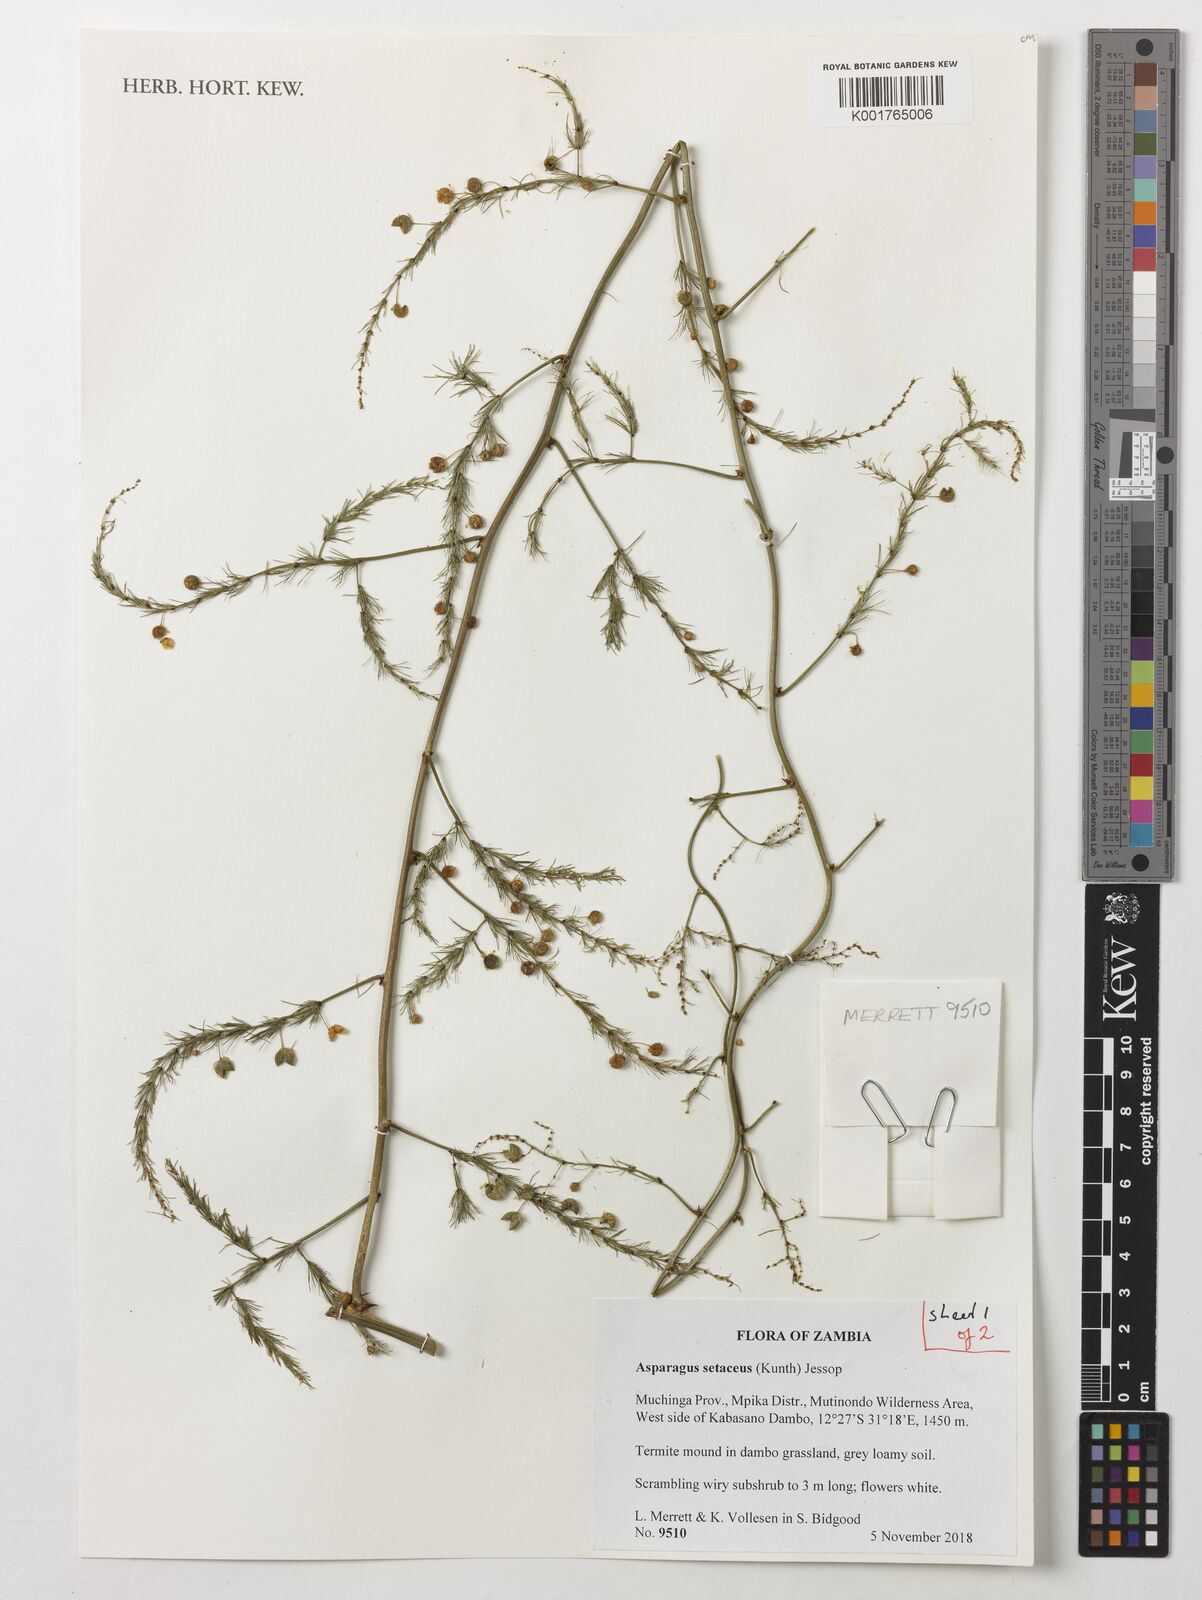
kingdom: Plantae
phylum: Tracheophyta
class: Liliopsida
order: Asparagales
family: Asparagaceae
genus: Asparagus
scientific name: Asparagus setaceus
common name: Common asparagus fern
